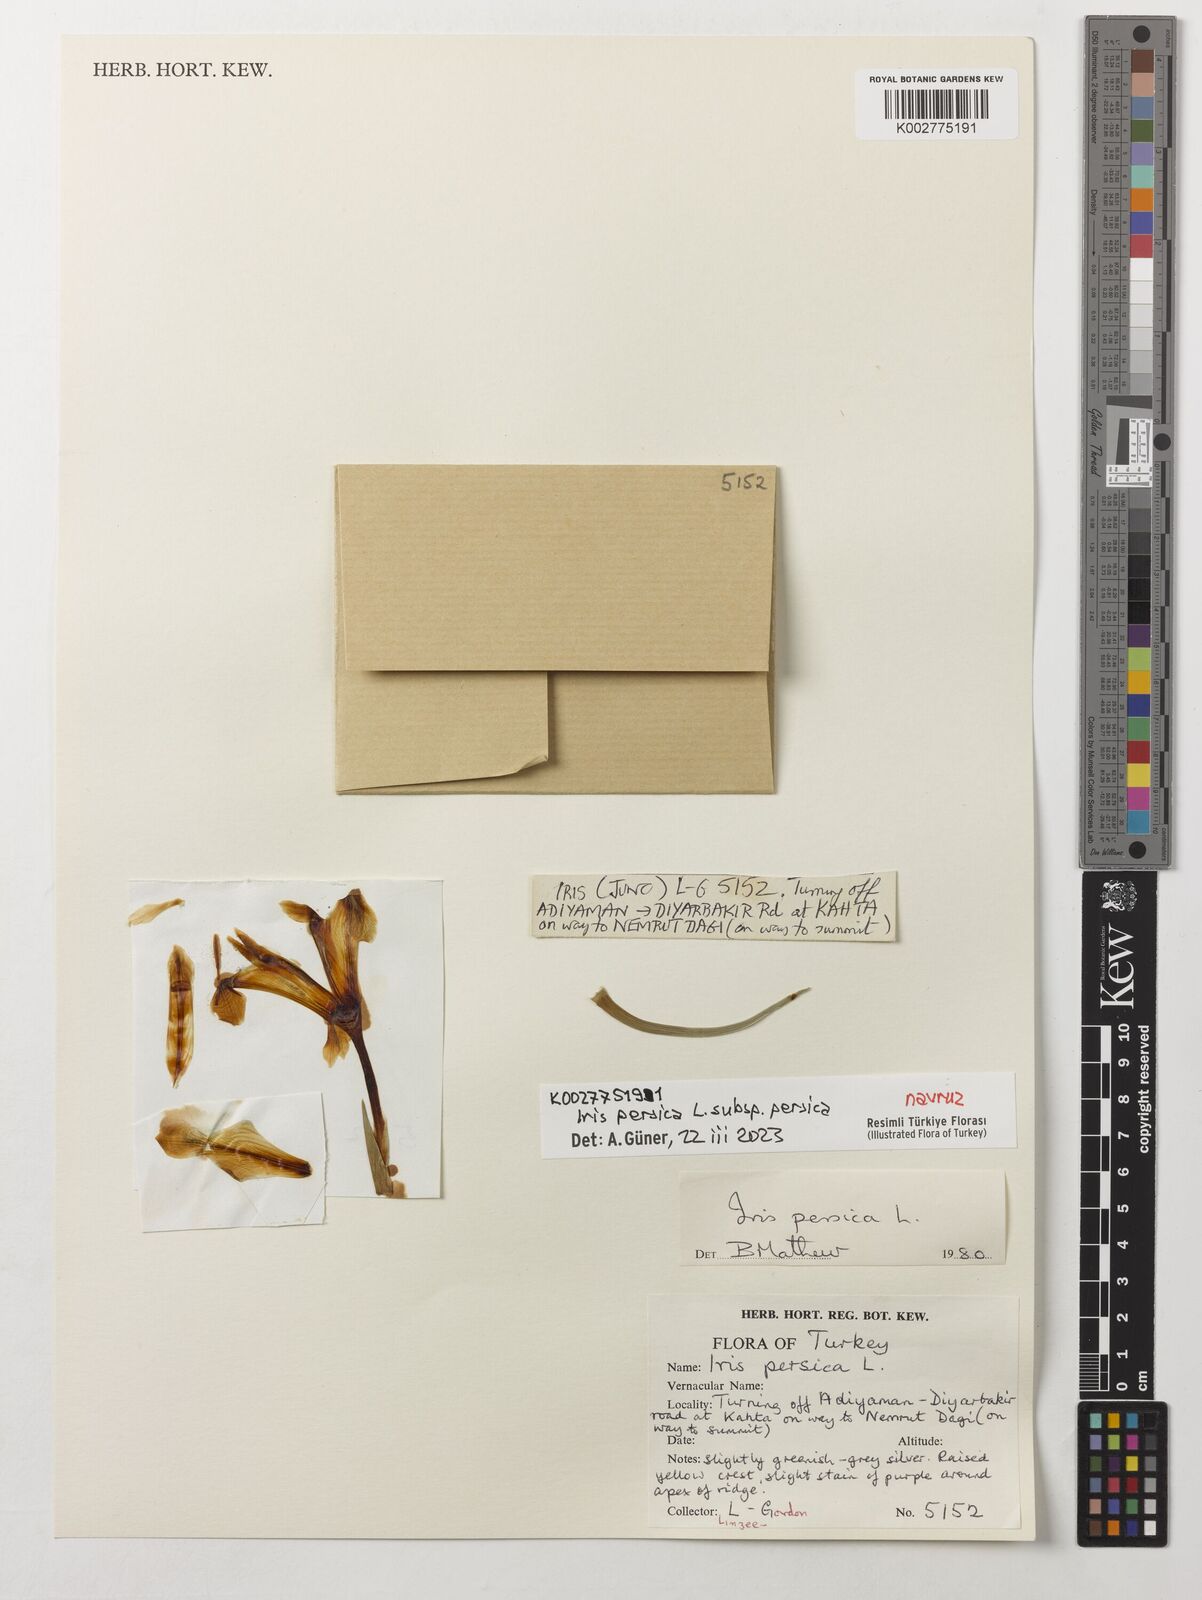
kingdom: Plantae
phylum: Tracheophyta
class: Liliopsida
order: Asparagales
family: Iridaceae
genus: Iris
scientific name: Iris persica
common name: Persian iris
